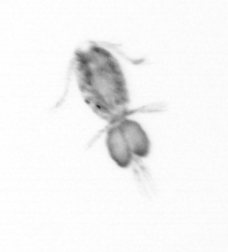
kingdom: Animalia
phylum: Arthropoda
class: Copepoda
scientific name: Copepoda
